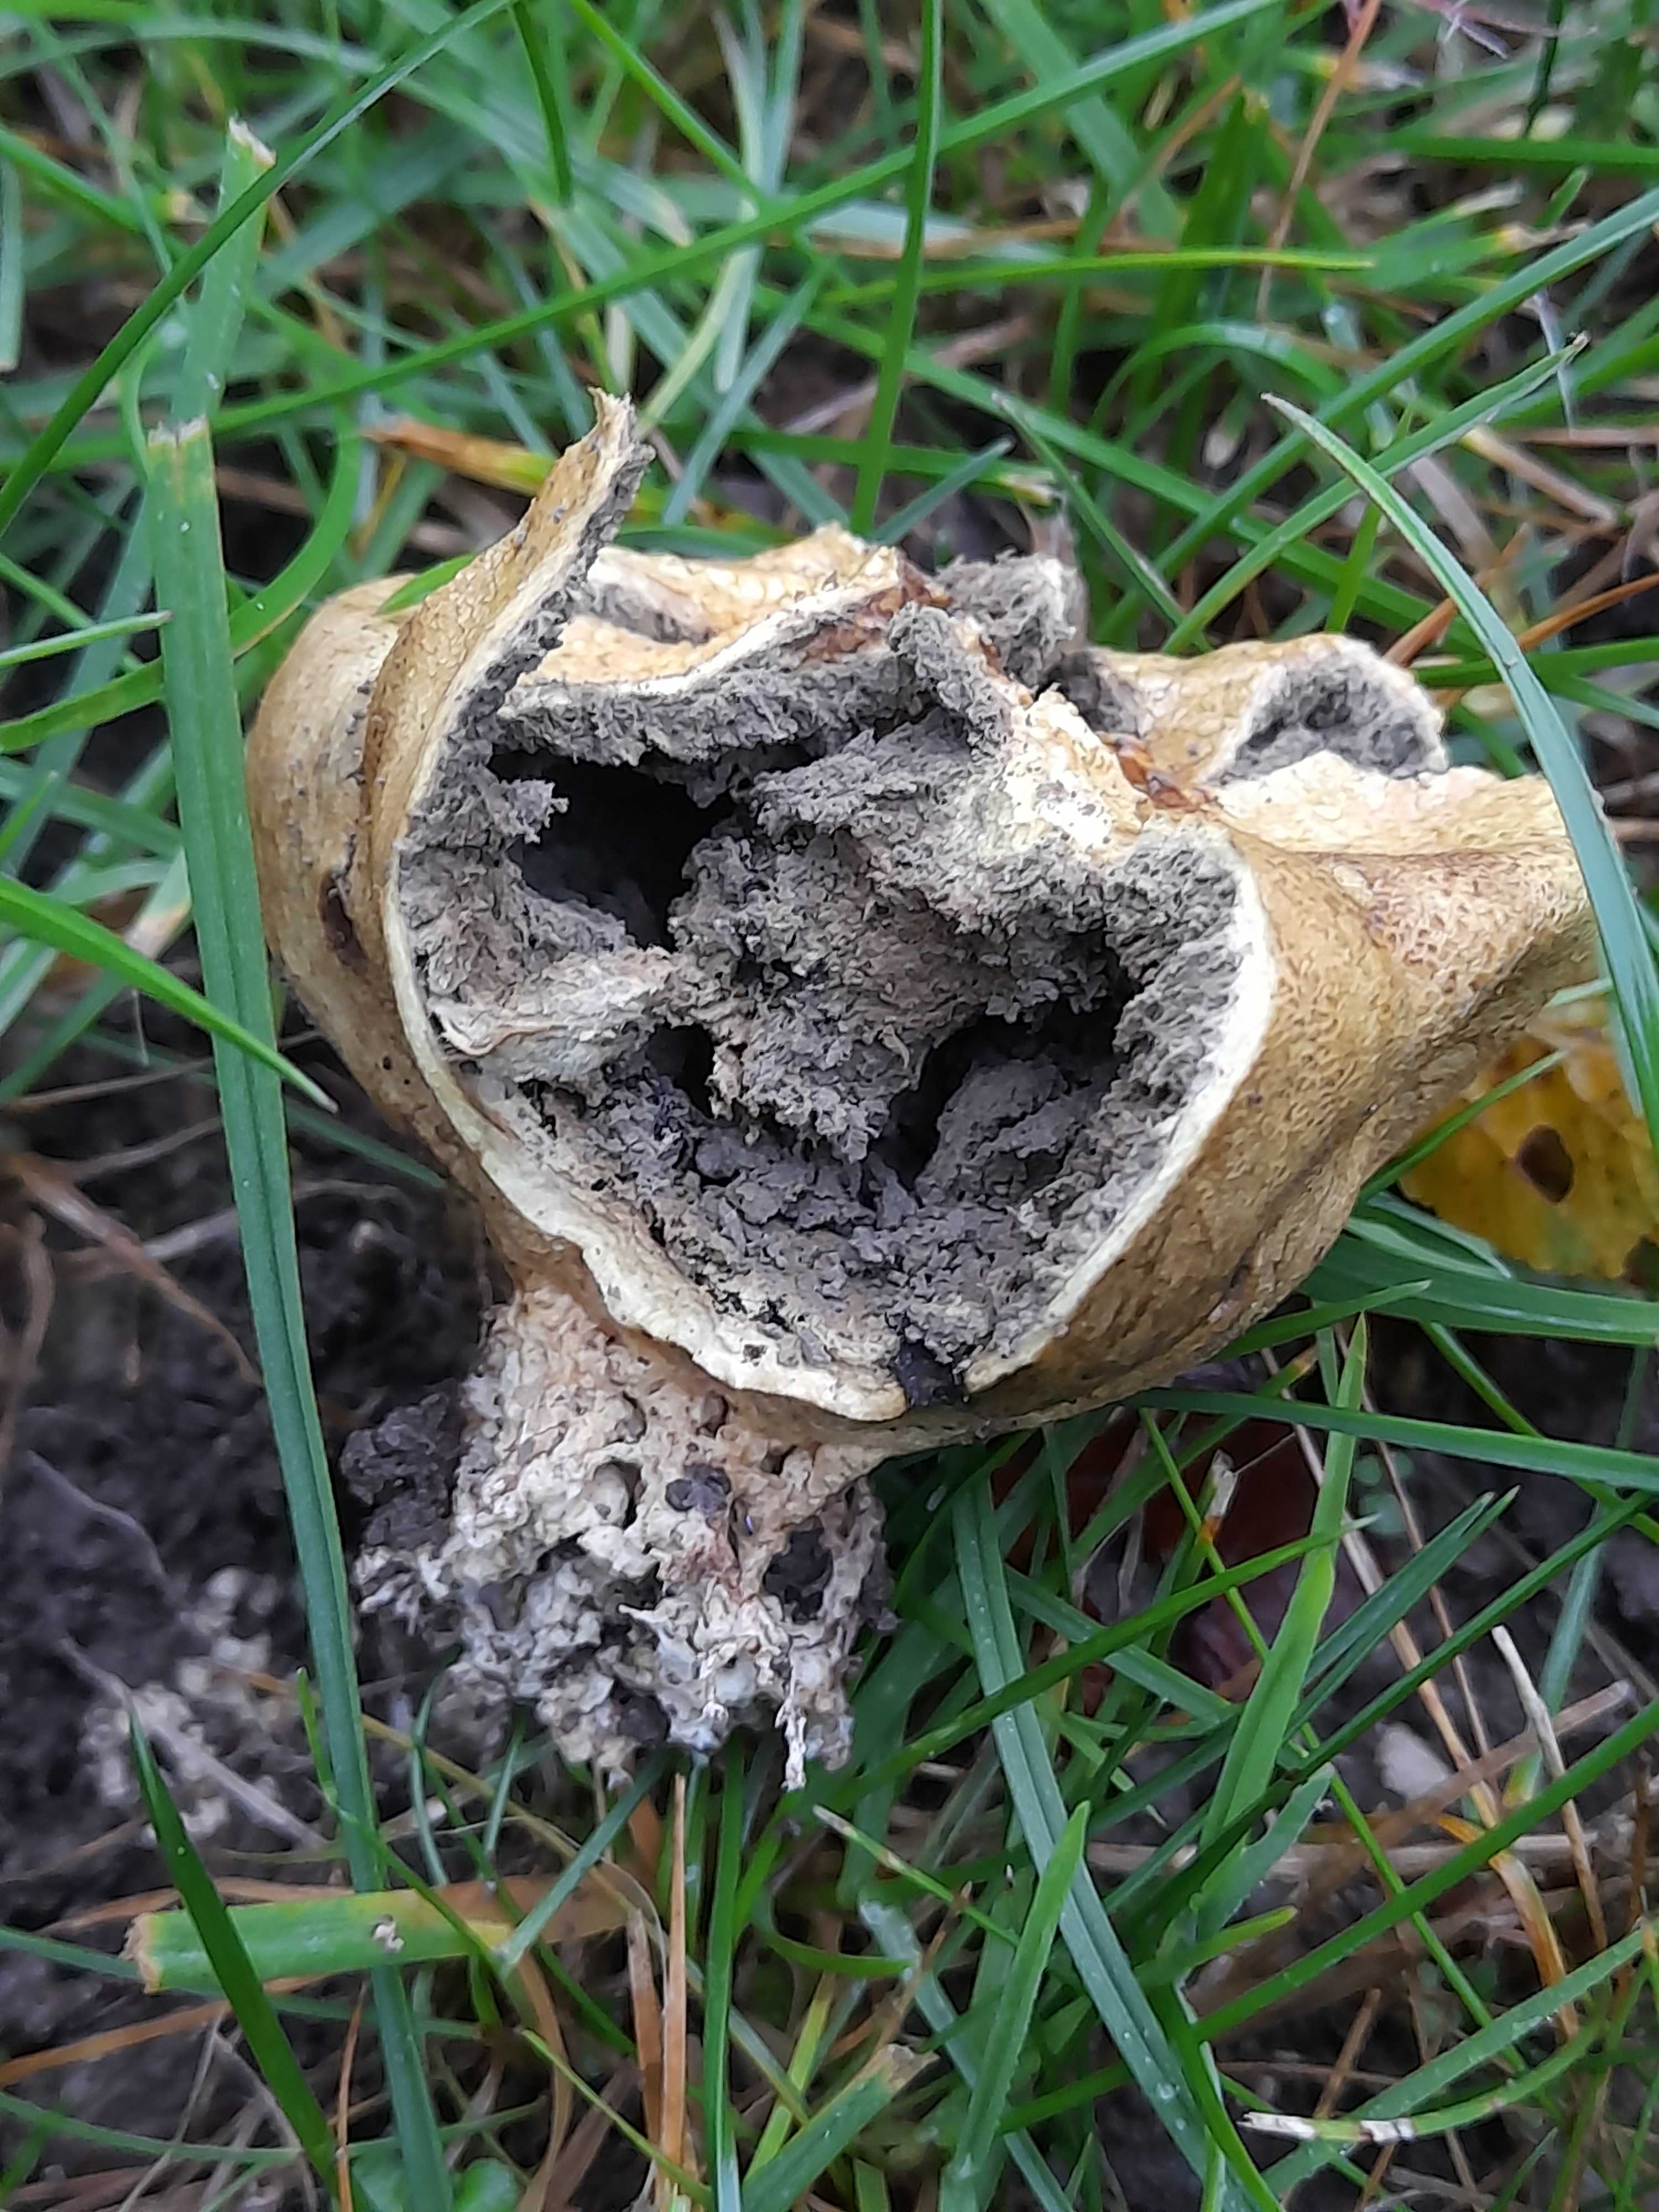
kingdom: Fungi
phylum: Basidiomycota
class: Agaricomycetes
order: Boletales
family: Sclerodermataceae
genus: Scleroderma
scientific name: Scleroderma
